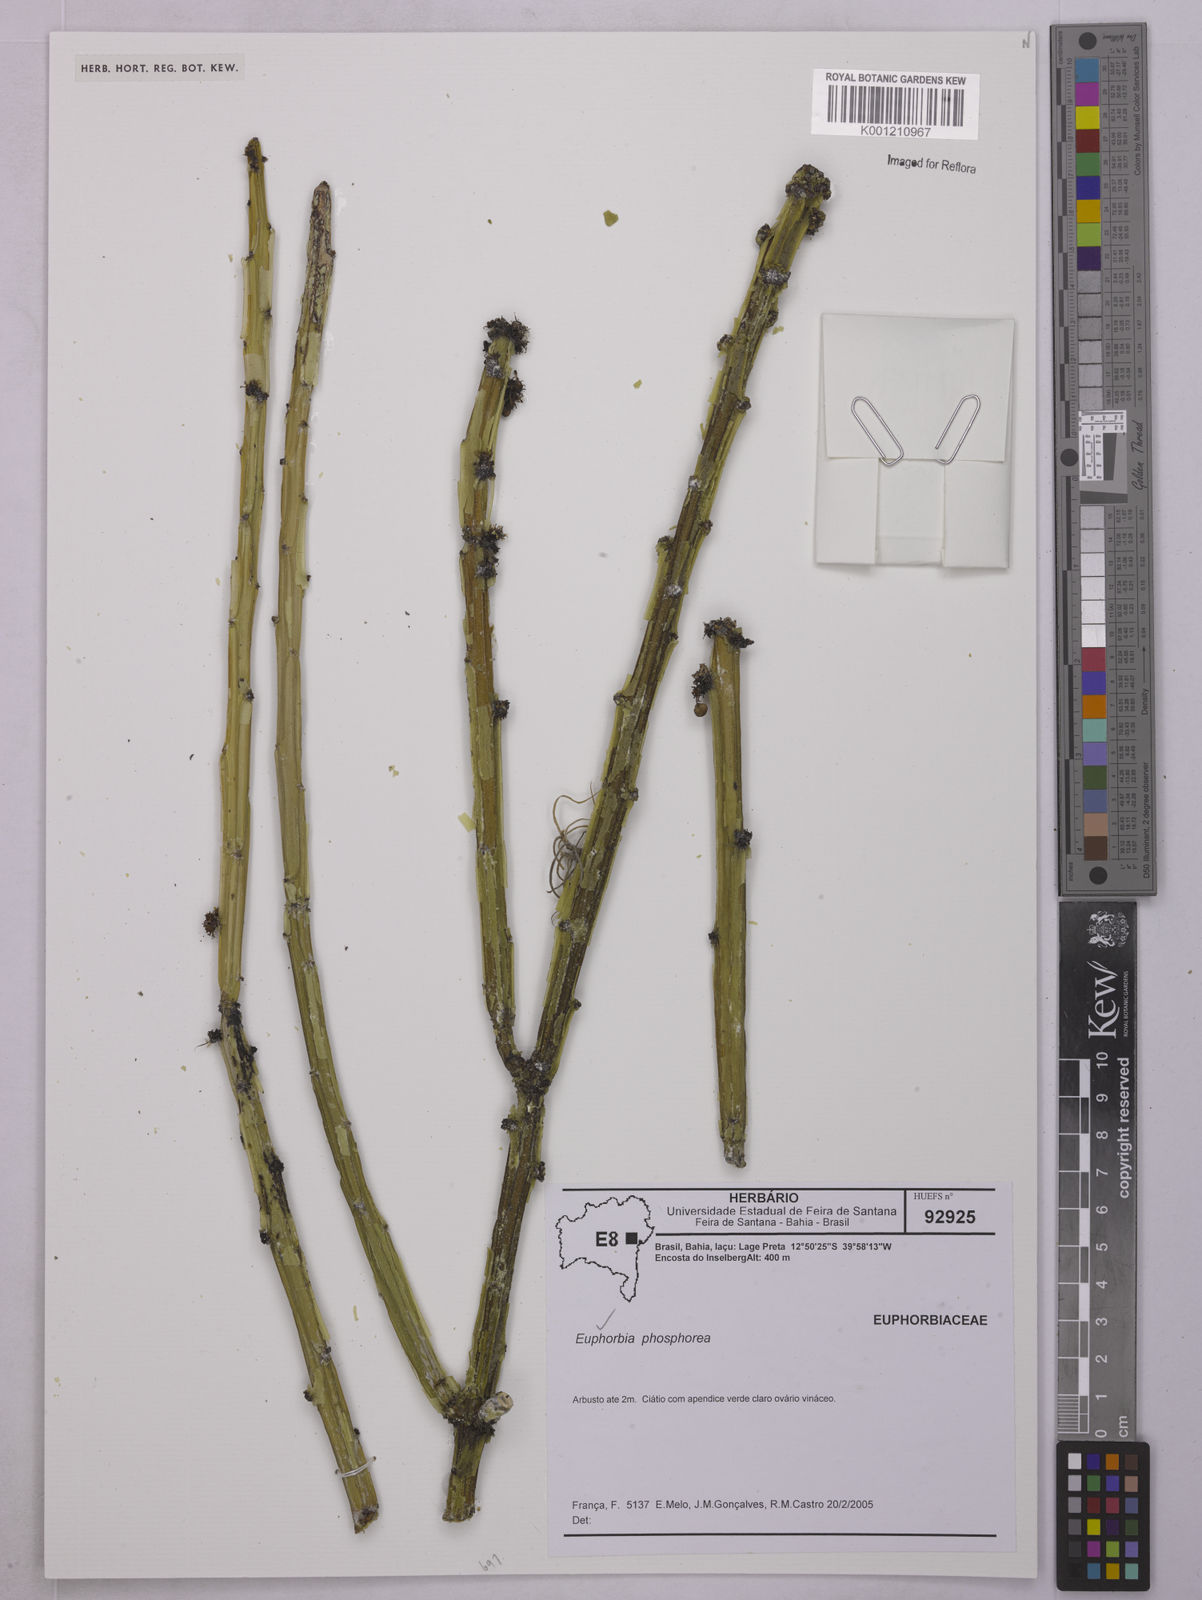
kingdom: Plantae
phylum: Tracheophyta
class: Magnoliopsida
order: Malpighiales
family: Euphorbiaceae
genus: Euphorbia
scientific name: Euphorbia phosphorea
